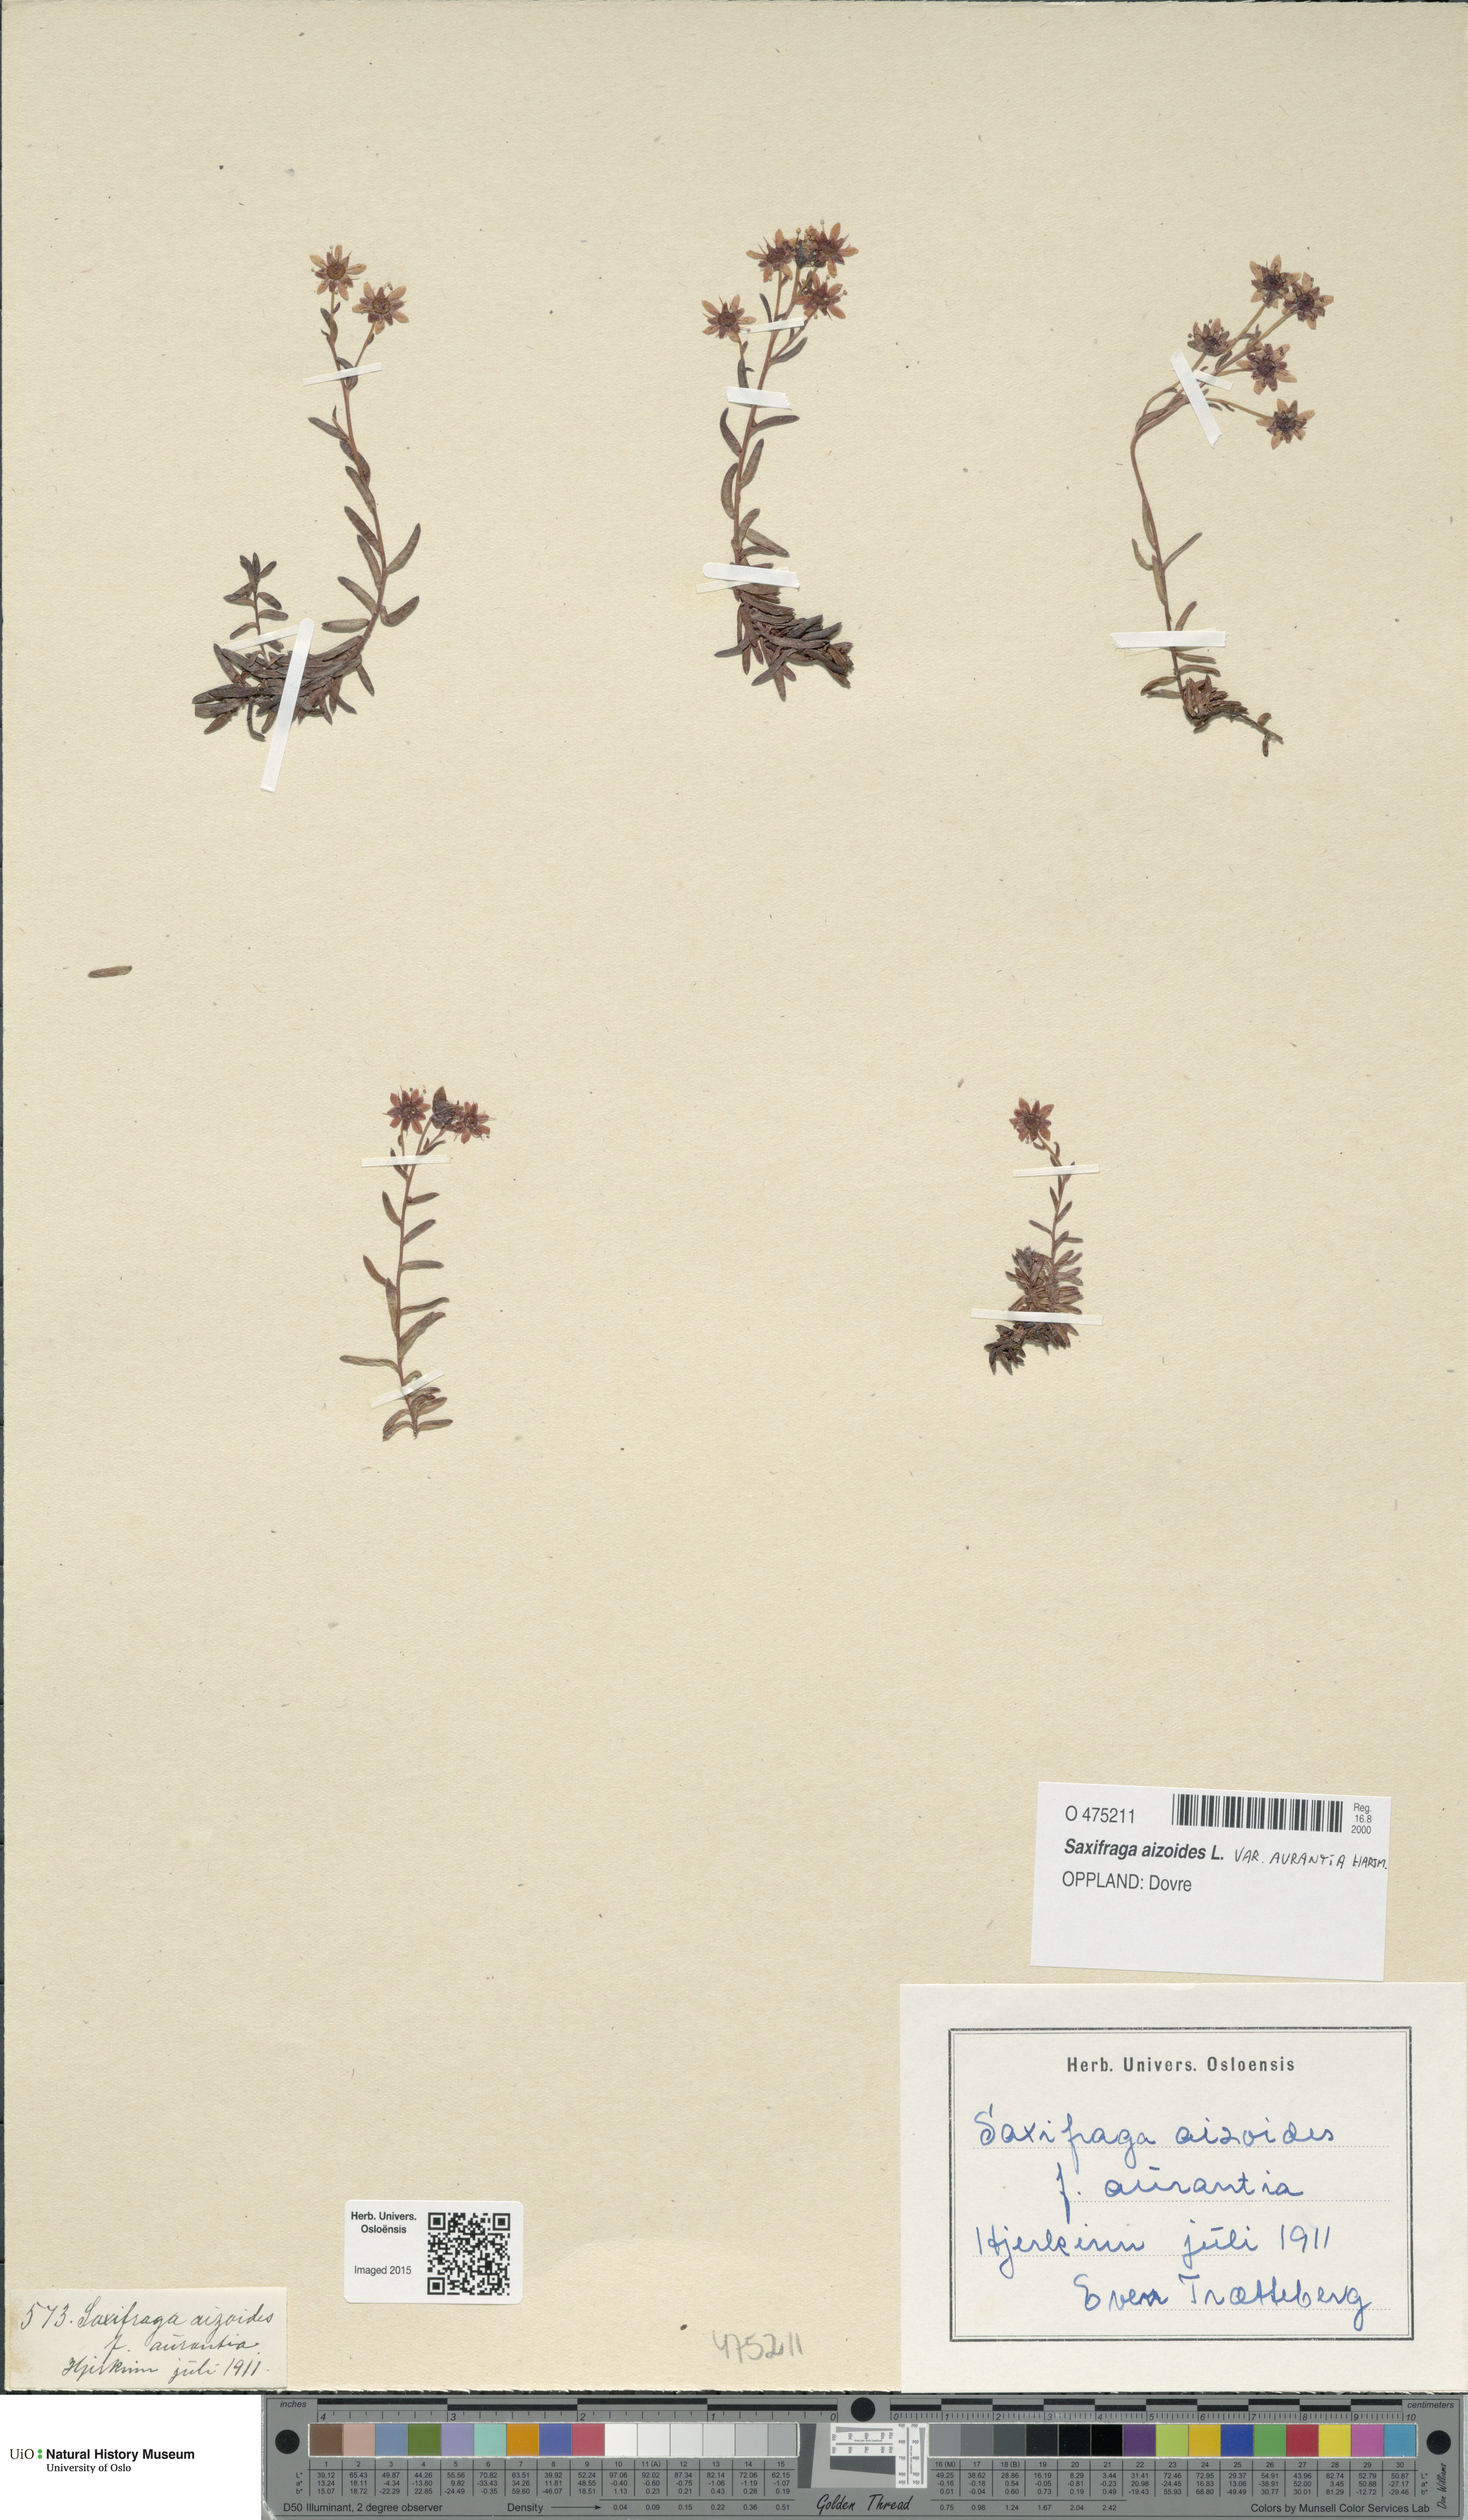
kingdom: Plantae
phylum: Tracheophyta
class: Magnoliopsida
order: Saxifragales
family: Saxifragaceae
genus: Saxifraga
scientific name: Saxifraga aizoides
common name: Yellow mountain saxifrage
